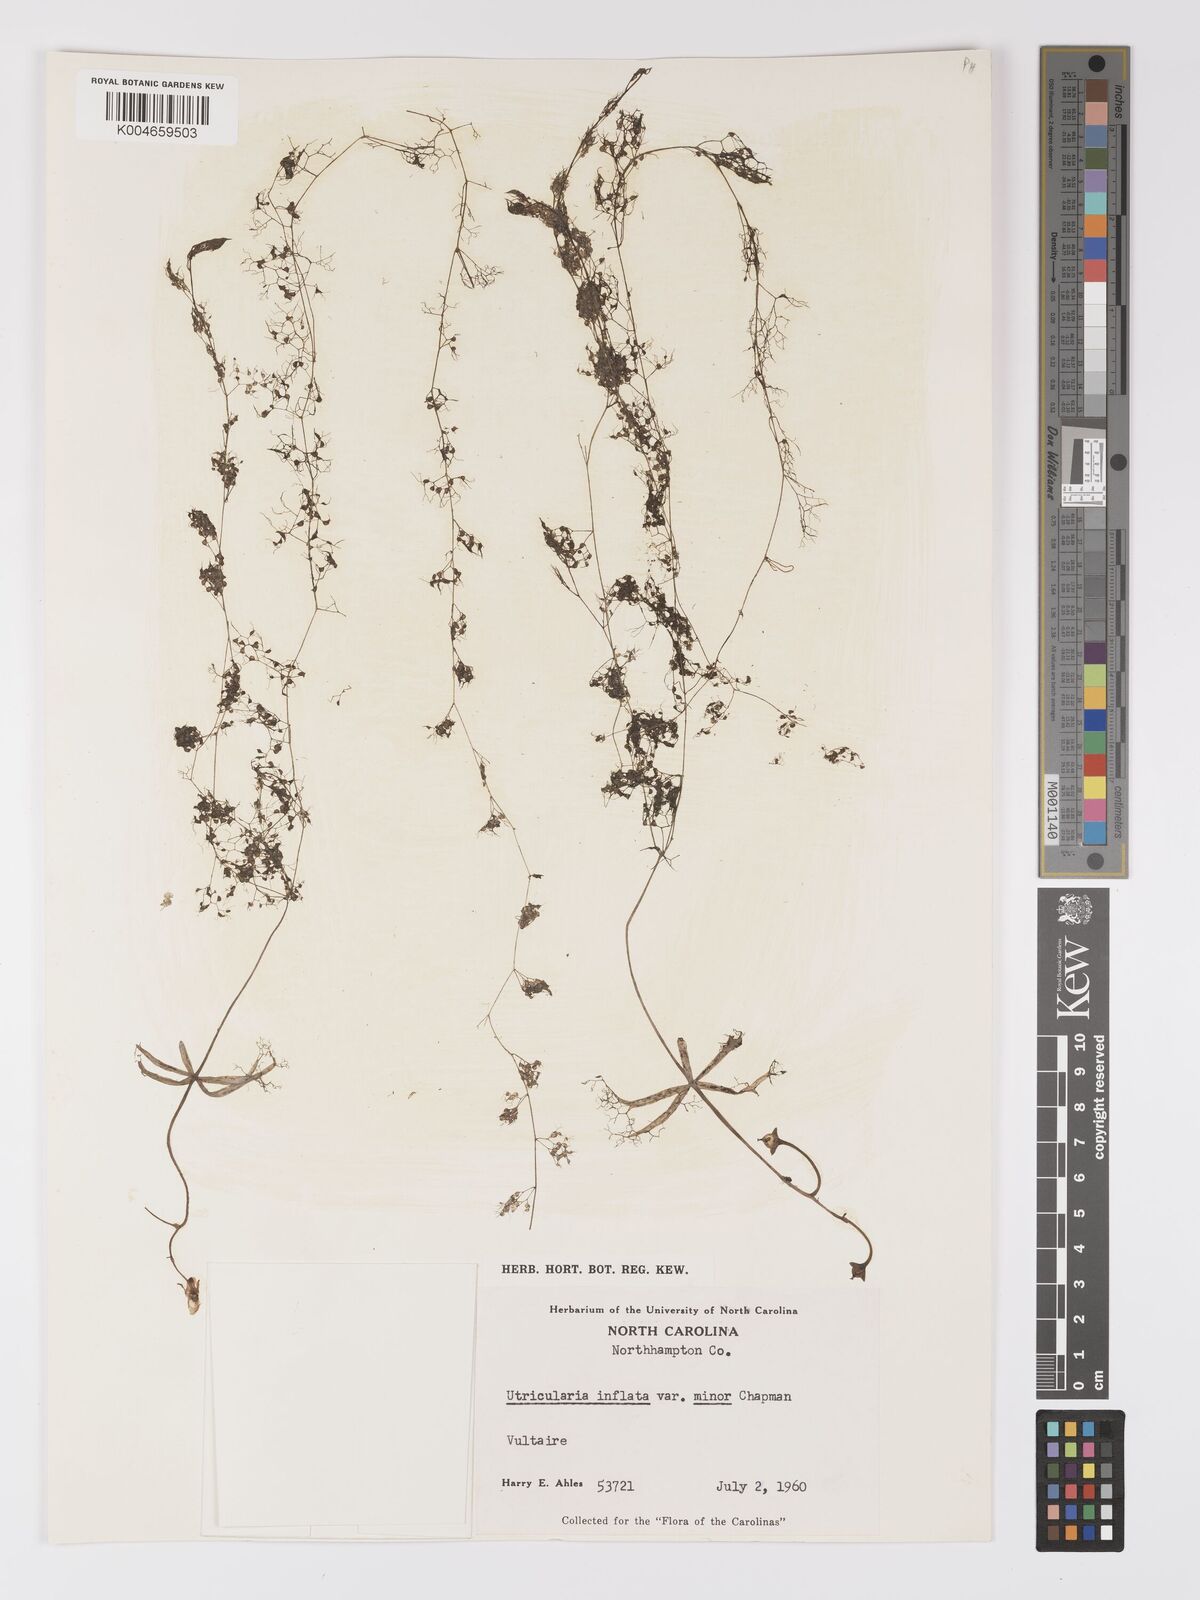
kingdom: Plantae
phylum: Tracheophyta
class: Magnoliopsida
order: Lamiales
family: Lentibulariaceae
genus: Utricularia
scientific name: Utricularia radiata
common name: Floating bladderwort
